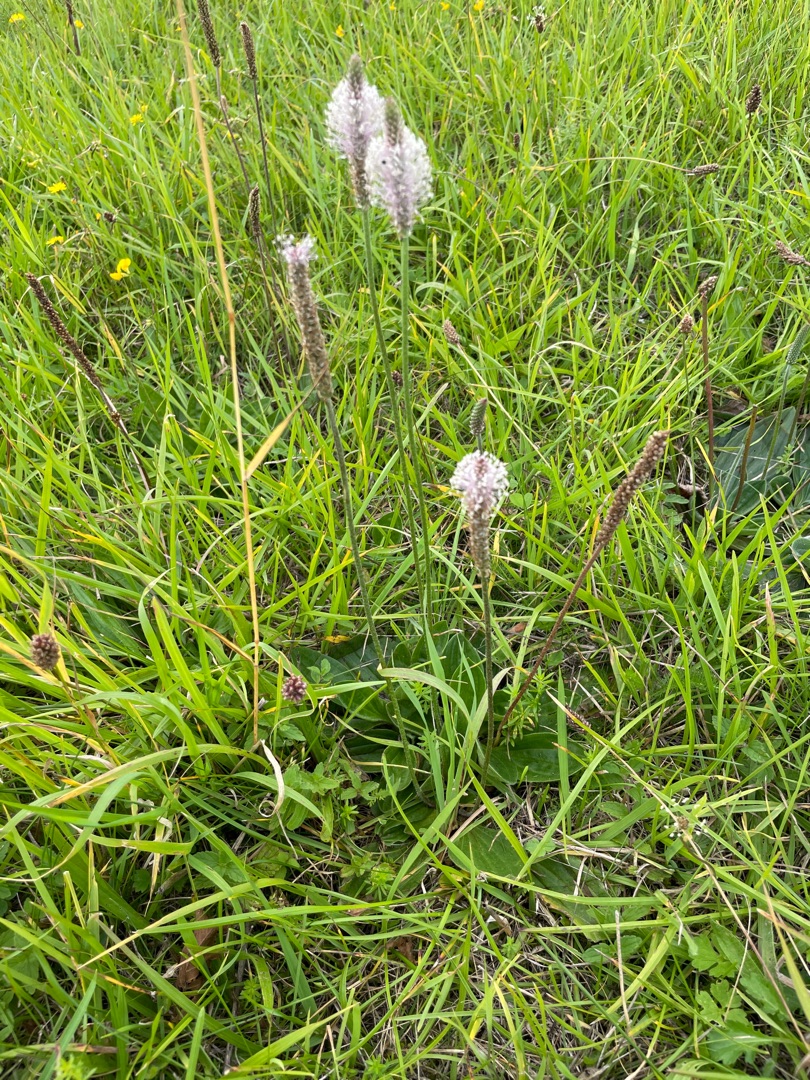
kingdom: Plantae
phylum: Tracheophyta
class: Magnoliopsida
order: Lamiales
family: Plantaginaceae
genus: Plantago
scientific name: Plantago media
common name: Dunet vejbred
